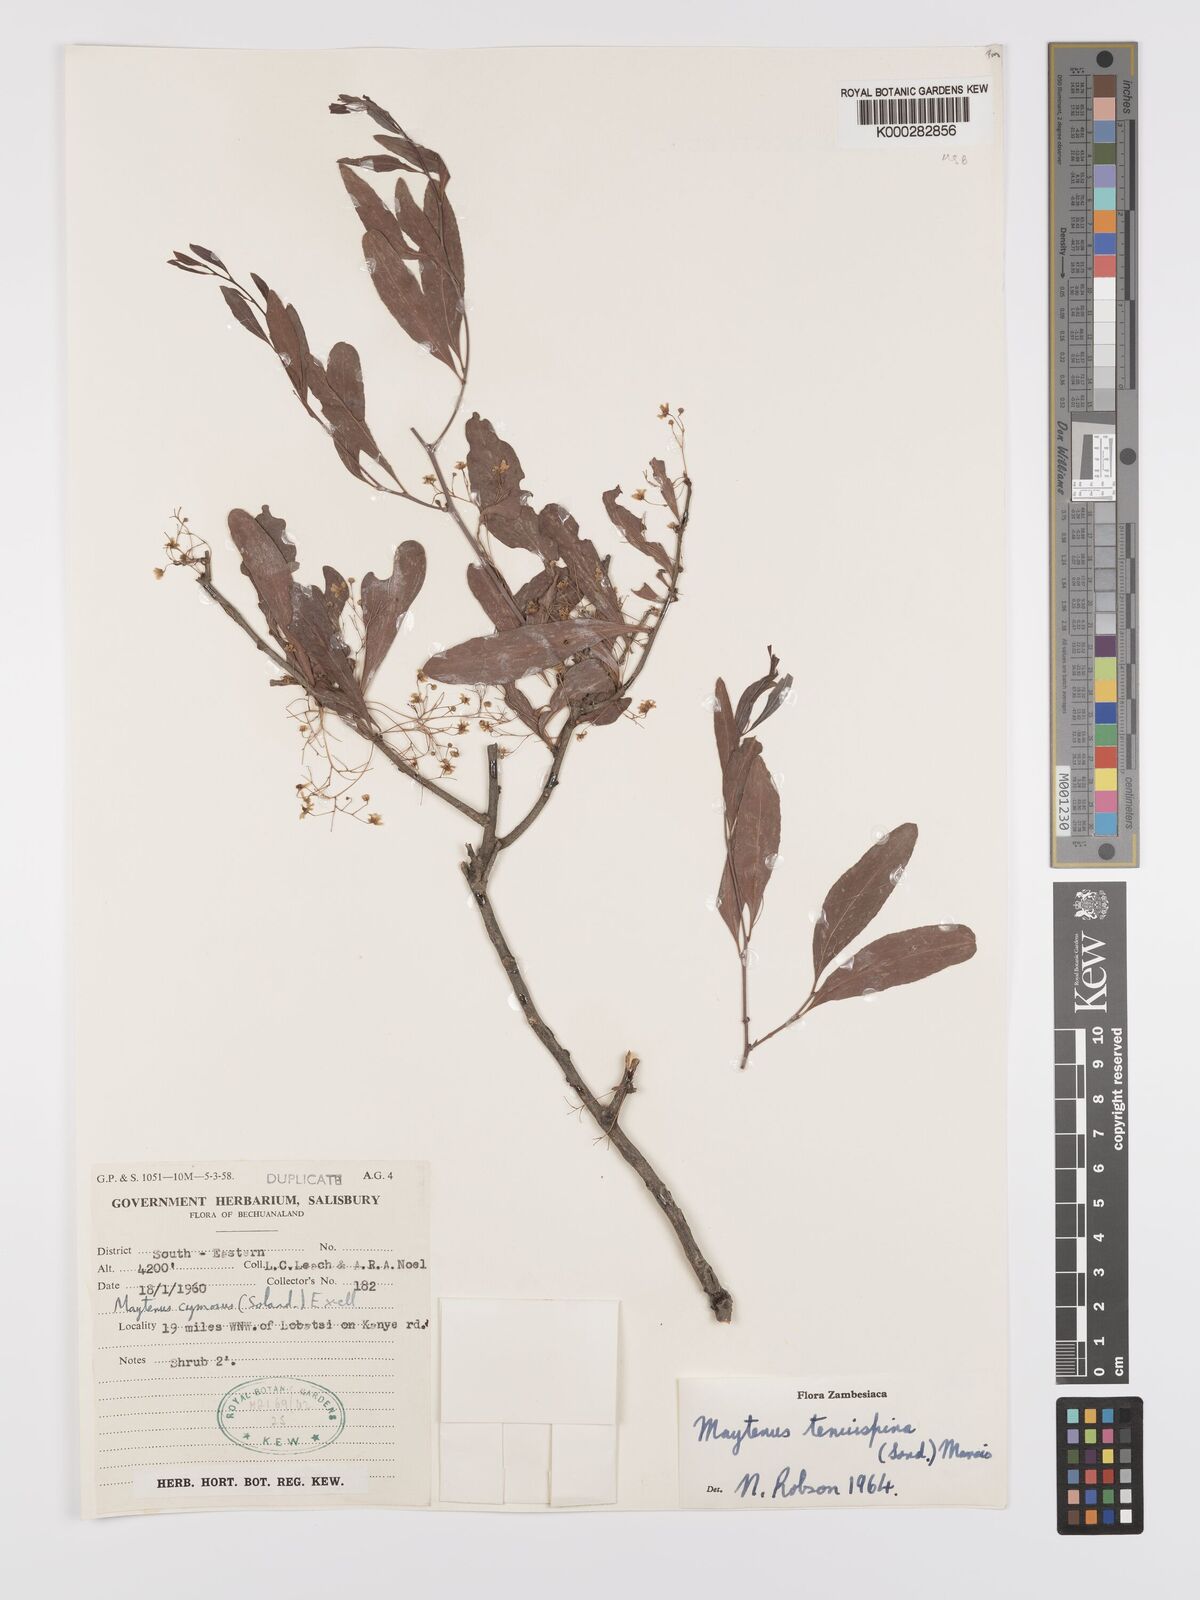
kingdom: Plantae
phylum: Tracheophyta
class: Magnoliopsida
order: Celastrales
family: Celastraceae
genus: Gymnosporia
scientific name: Gymnosporia tenuispina
